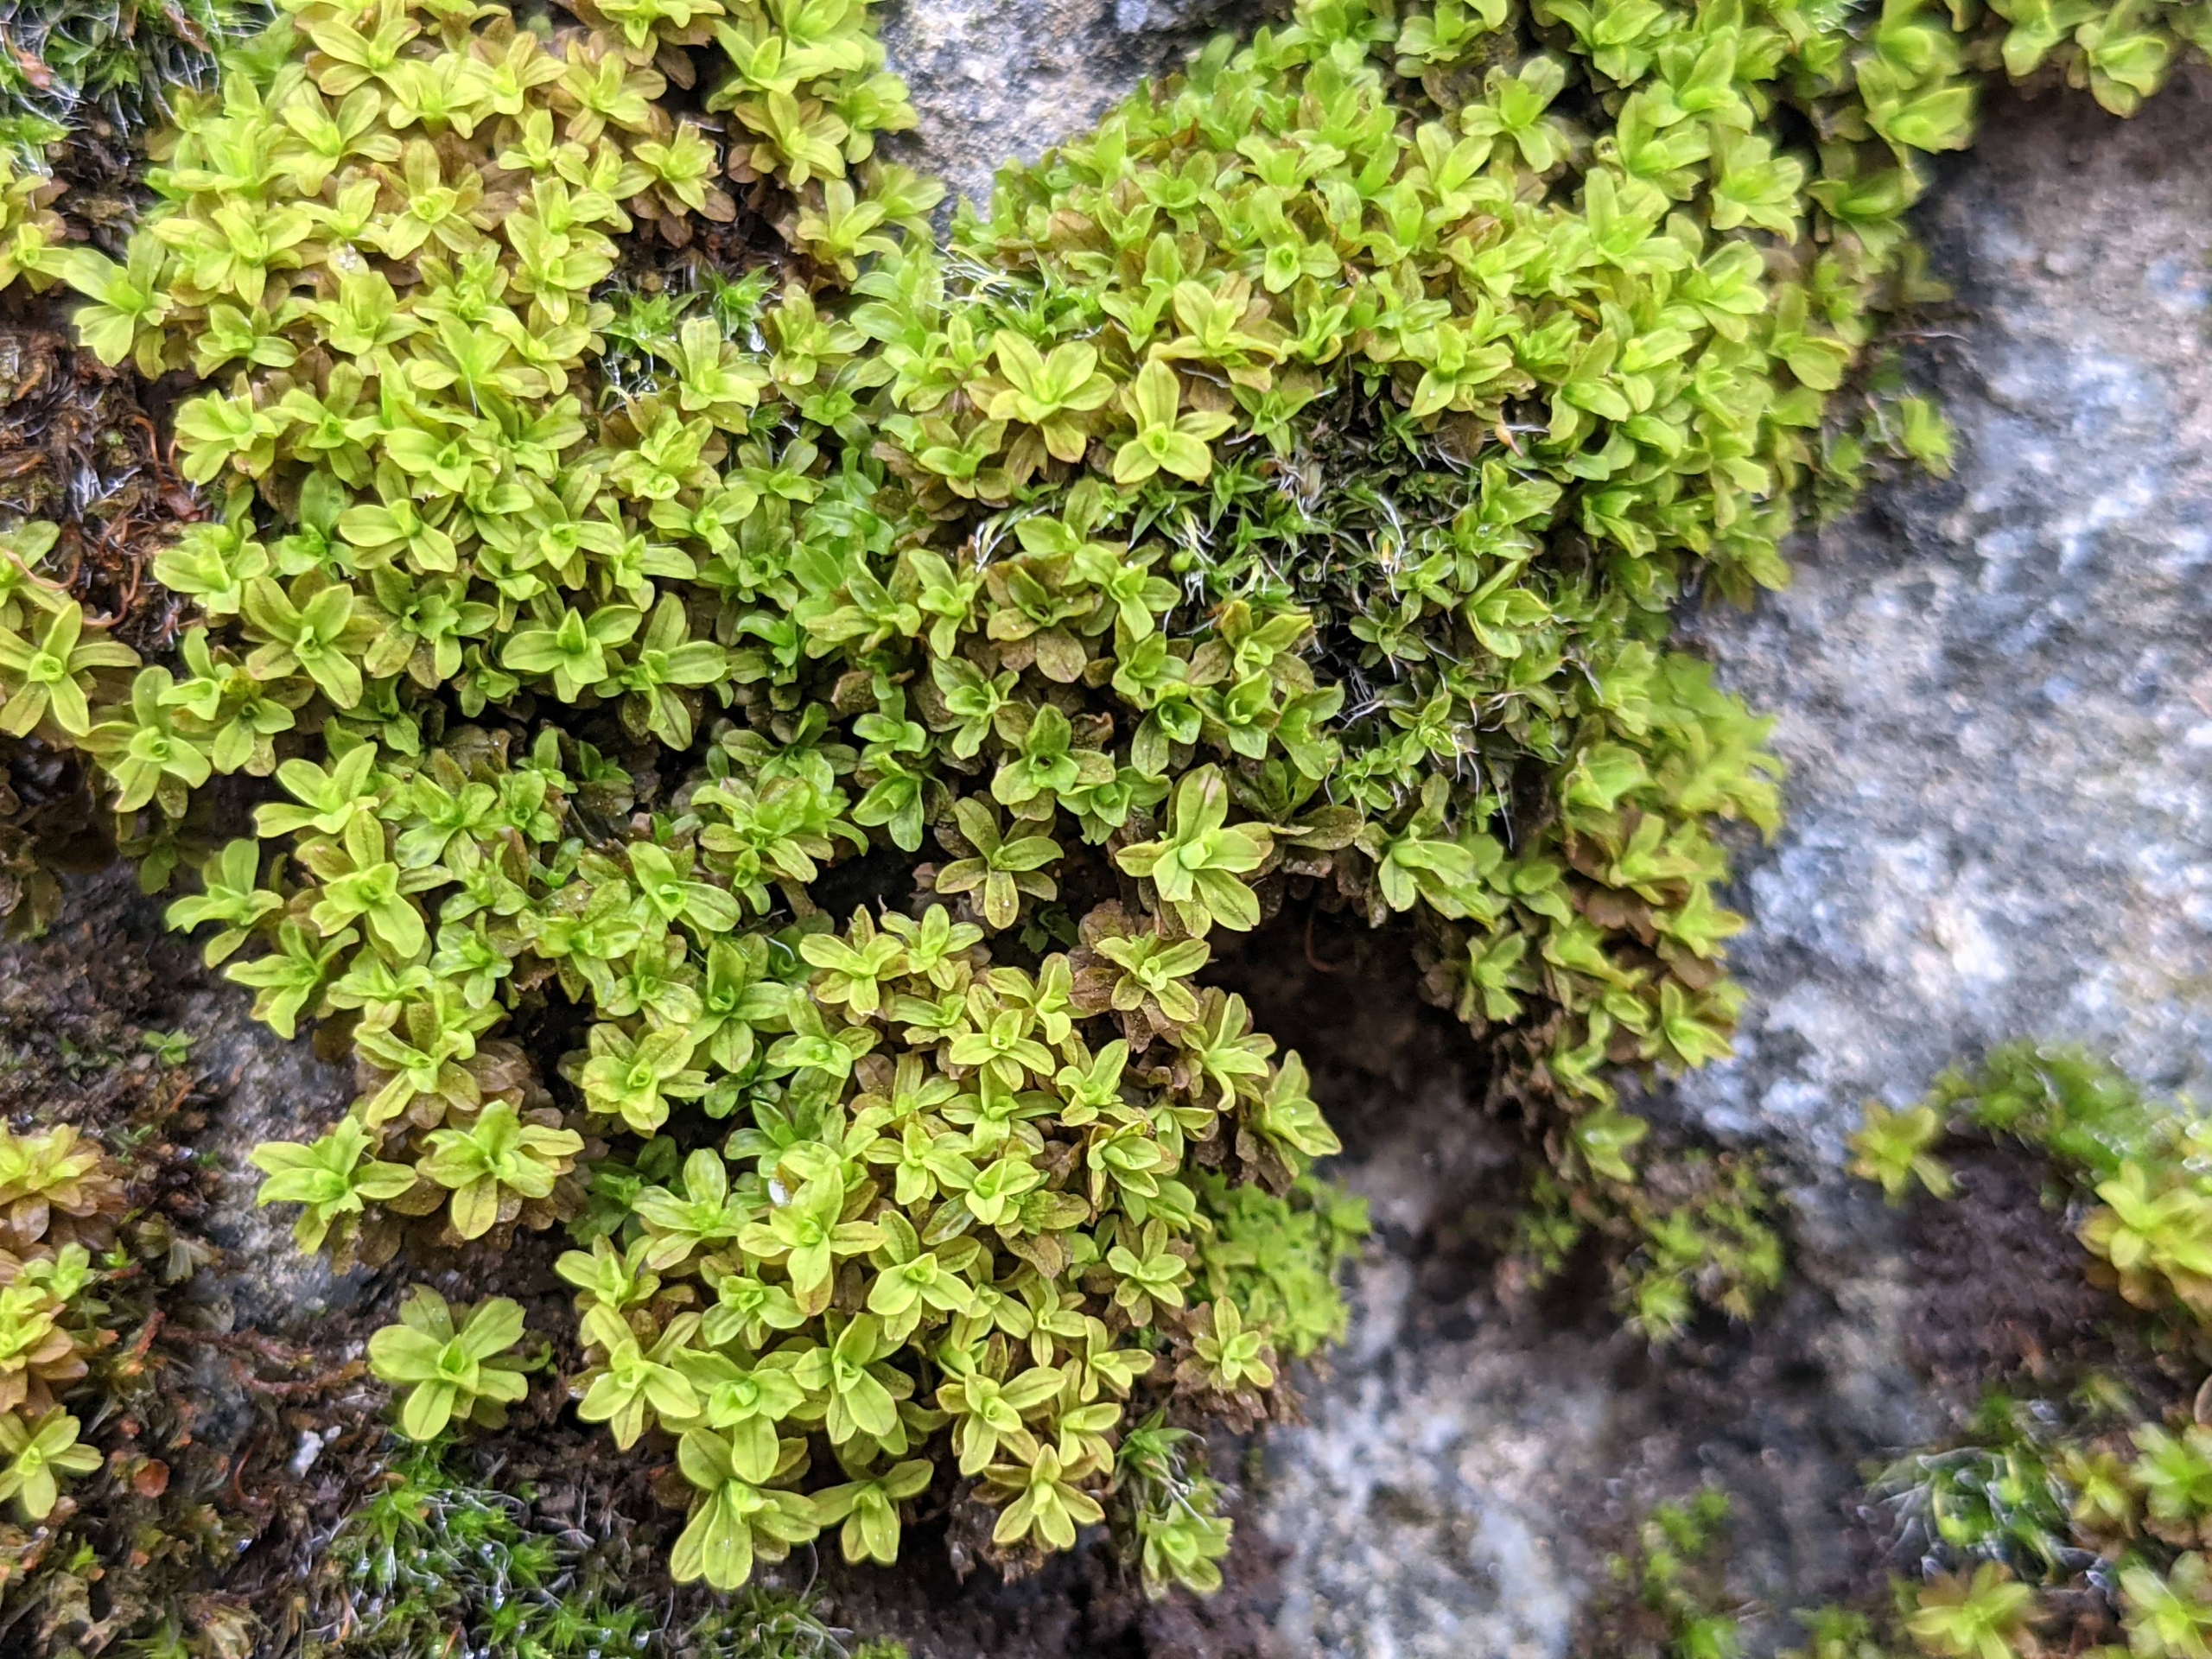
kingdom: Plantae
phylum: Bryophyta
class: Bryopsida
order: Pottiales
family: Pottiaceae
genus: Syntrichia
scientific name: Syntrichia latifolia
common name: Butbladet hårstjerne
